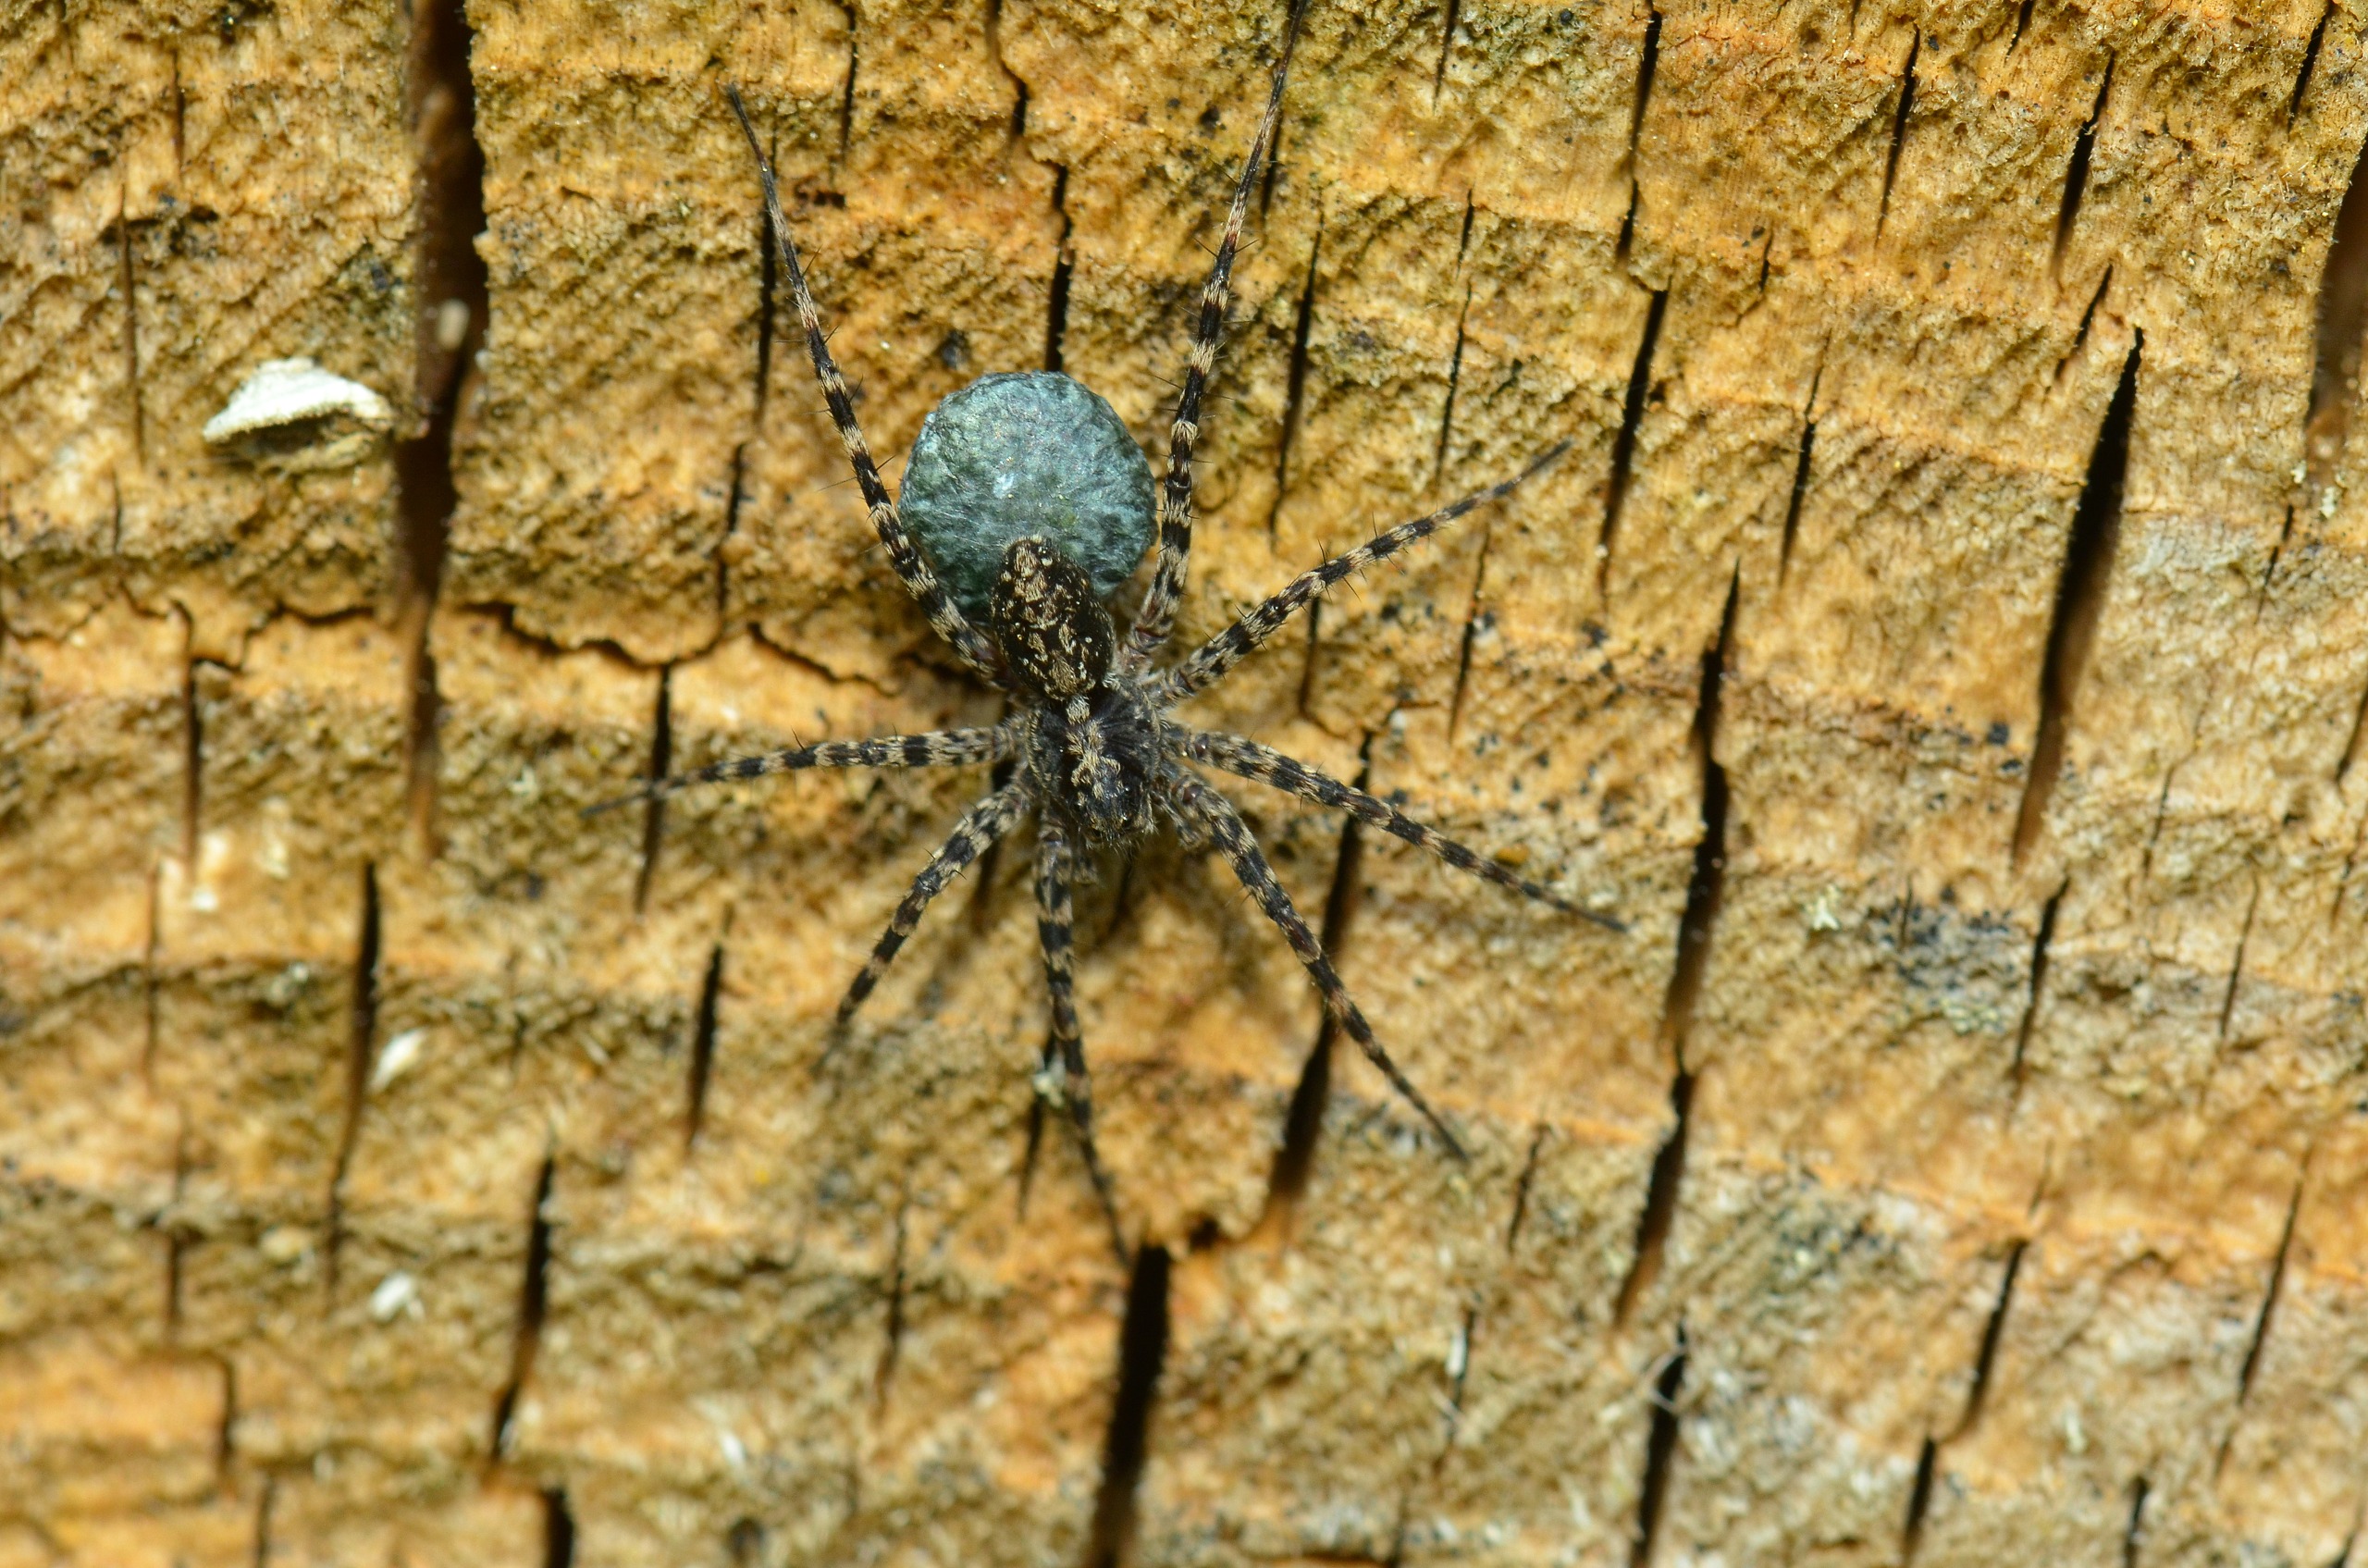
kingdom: Animalia
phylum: Arthropoda
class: Arachnida
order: Araneae
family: Lycosidae
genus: Acantholycosa
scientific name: Acantholycosa lignaria
